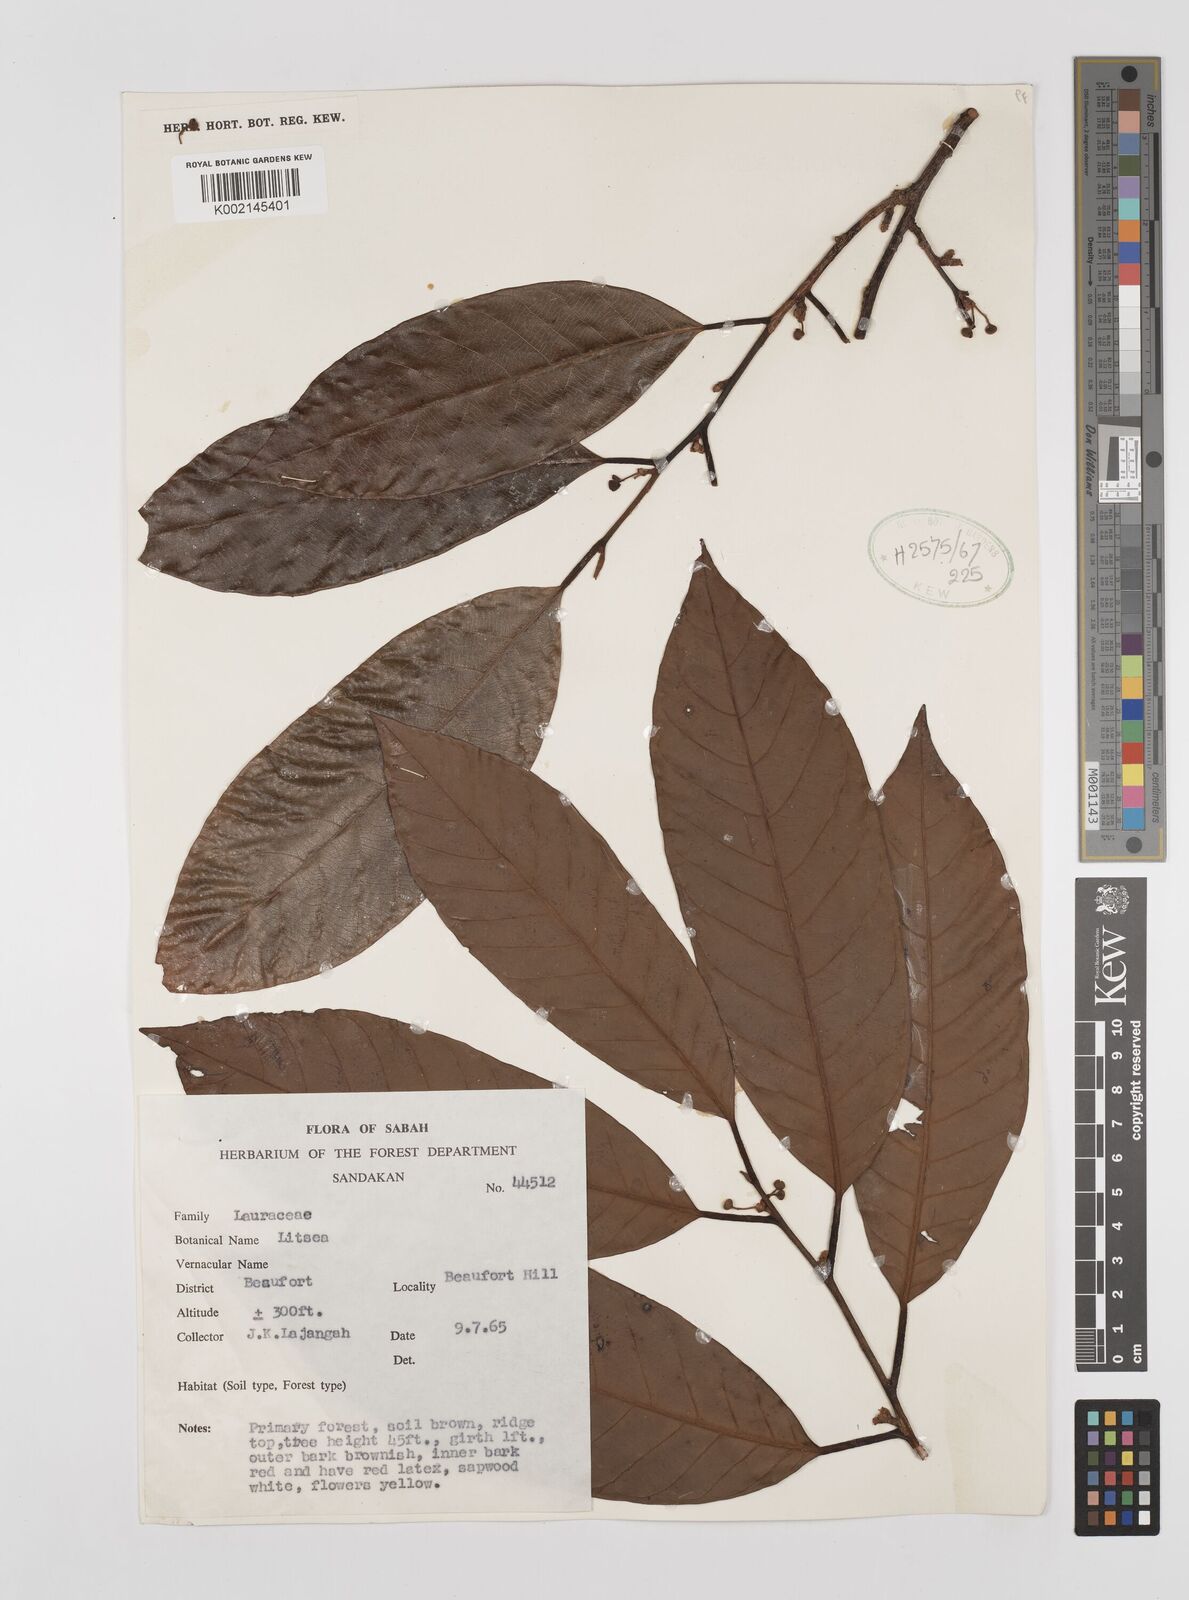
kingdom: Plantae
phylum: Tracheophyta
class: Magnoliopsida
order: Laurales
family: Lauraceae
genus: Litsea
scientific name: Litsea
